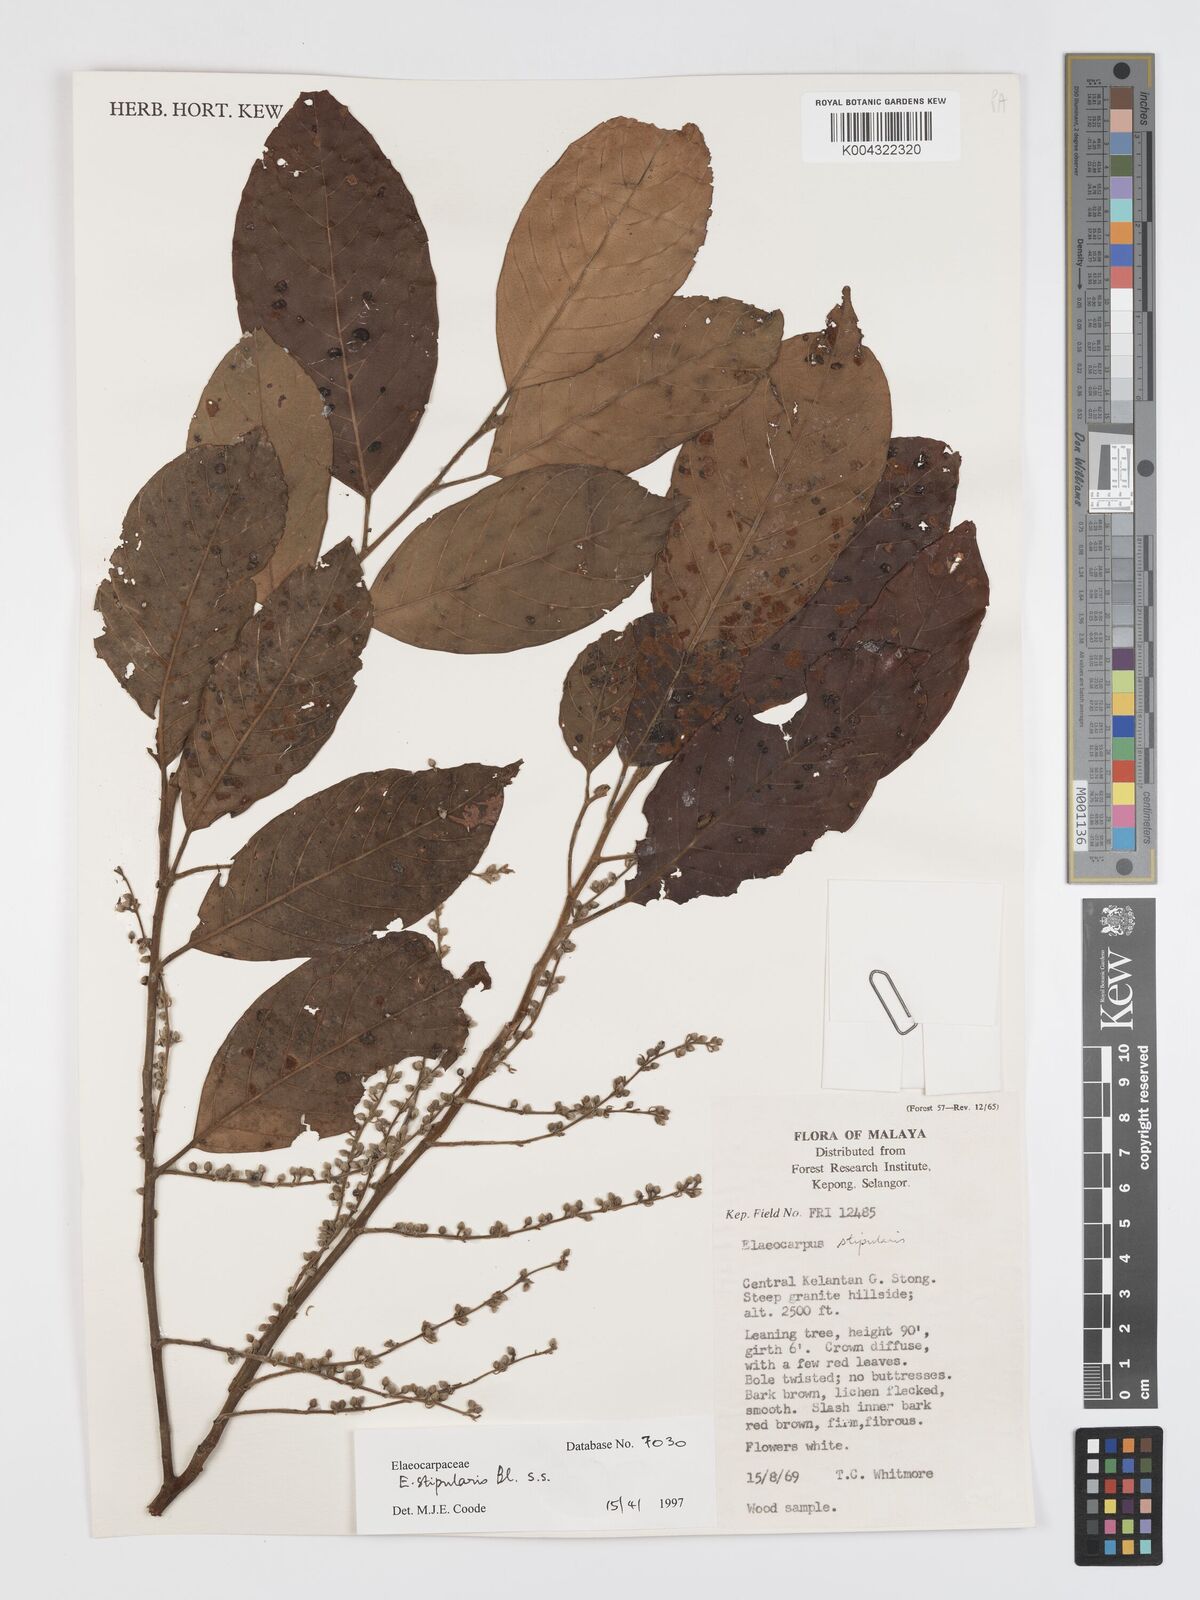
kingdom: Plantae
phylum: Tracheophyta
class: Magnoliopsida
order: Oxalidales
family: Elaeocarpaceae
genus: Elaeocarpus
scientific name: Elaeocarpus stipularis
